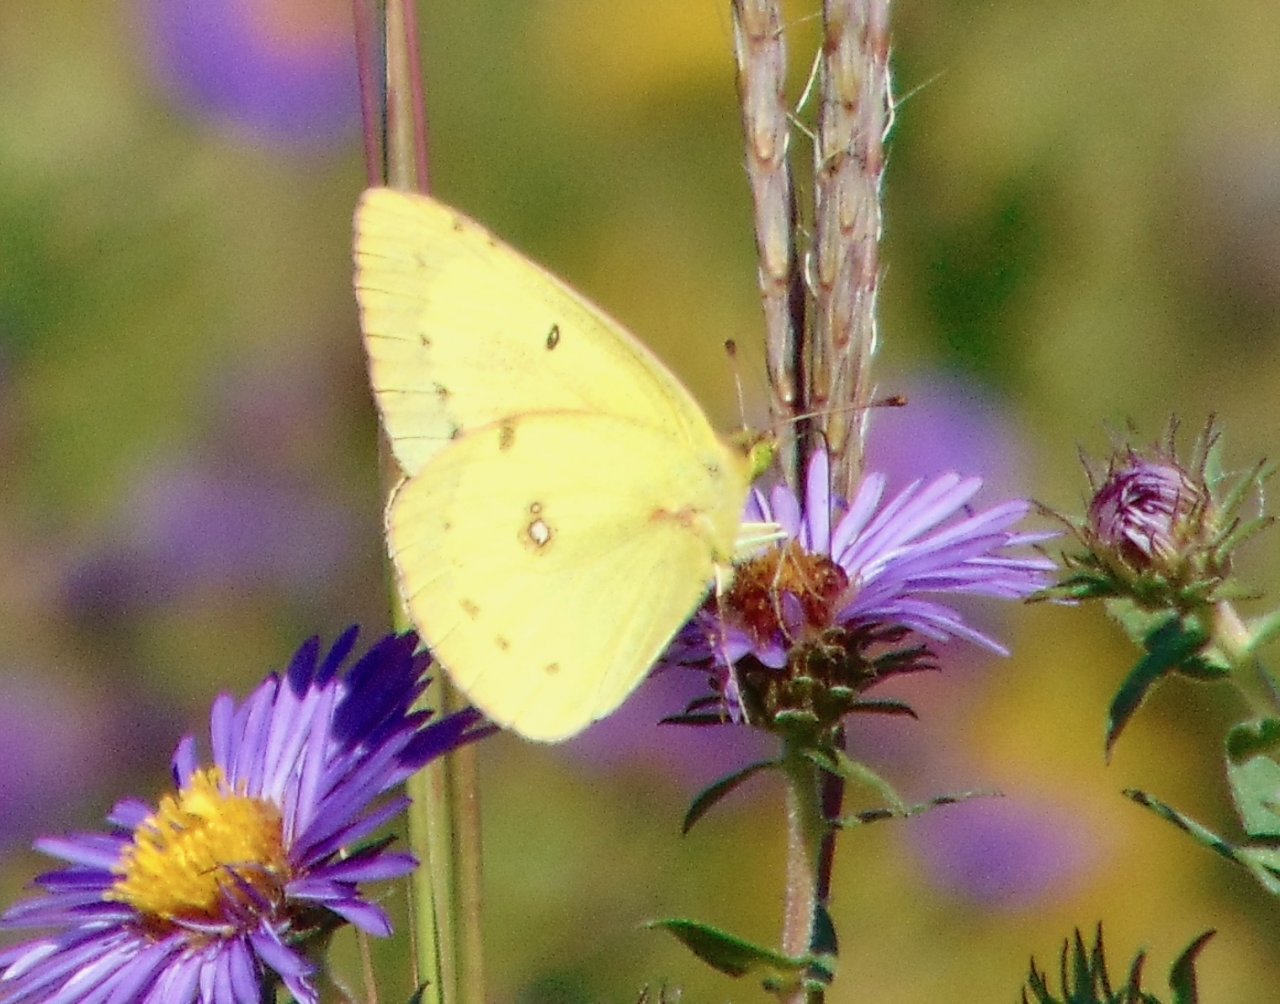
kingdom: Animalia
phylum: Arthropoda
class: Insecta
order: Lepidoptera
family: Pieridae
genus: Colias
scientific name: Colias philodice
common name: Clouded Sulphur
